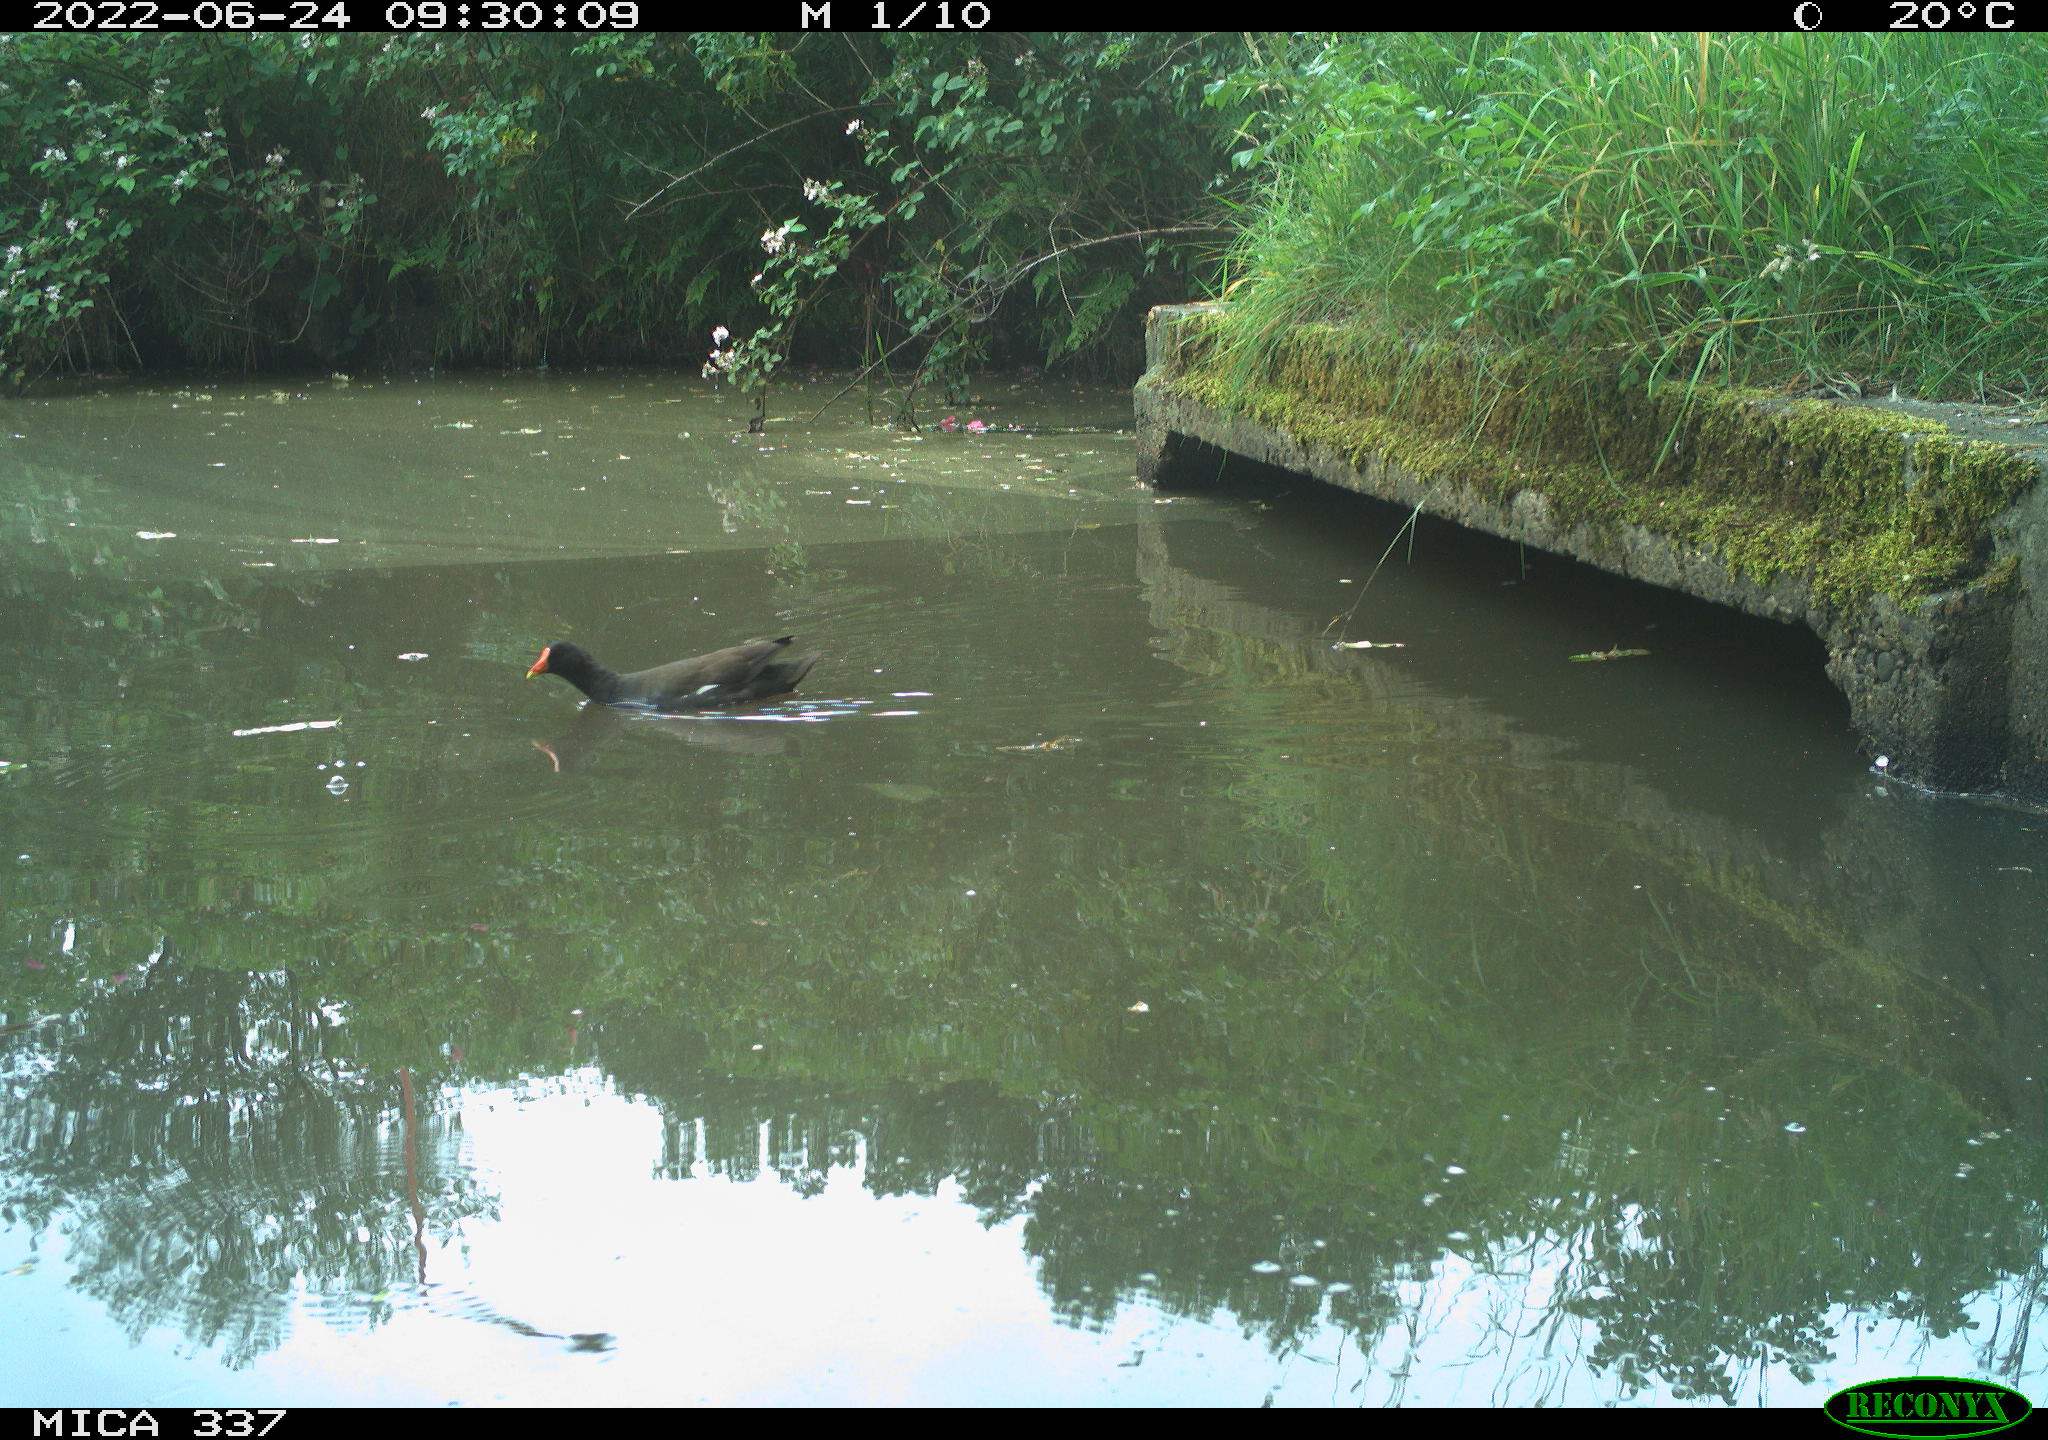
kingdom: Animalia
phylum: Chordata
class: Aves
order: Gruiformes
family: Rallidae
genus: Gallinula
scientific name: Gallinula chloropus
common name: Common moorhen
